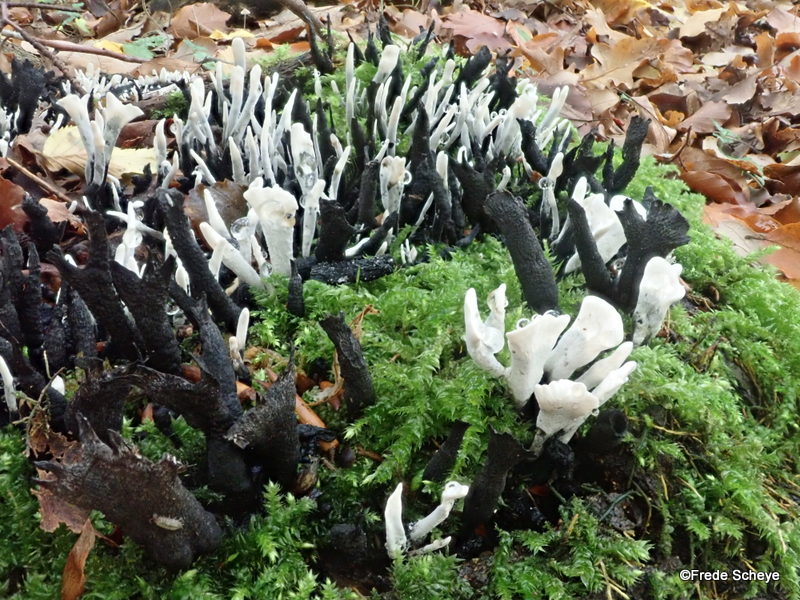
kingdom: Fungi
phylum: Ascomycota
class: Sordariomycetes
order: Xylariales
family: Xylariaceae
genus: Xylaria
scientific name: Xylaria hypoxylon
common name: grenet stødsvamp
